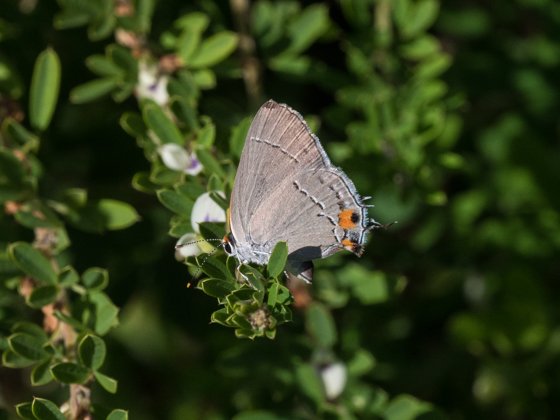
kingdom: Animalia
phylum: Arthropoda
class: Insecta
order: Lepidoptera
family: Lycaenidae
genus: Strymon
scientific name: Strymon melinus
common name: Gray Hairstreak
